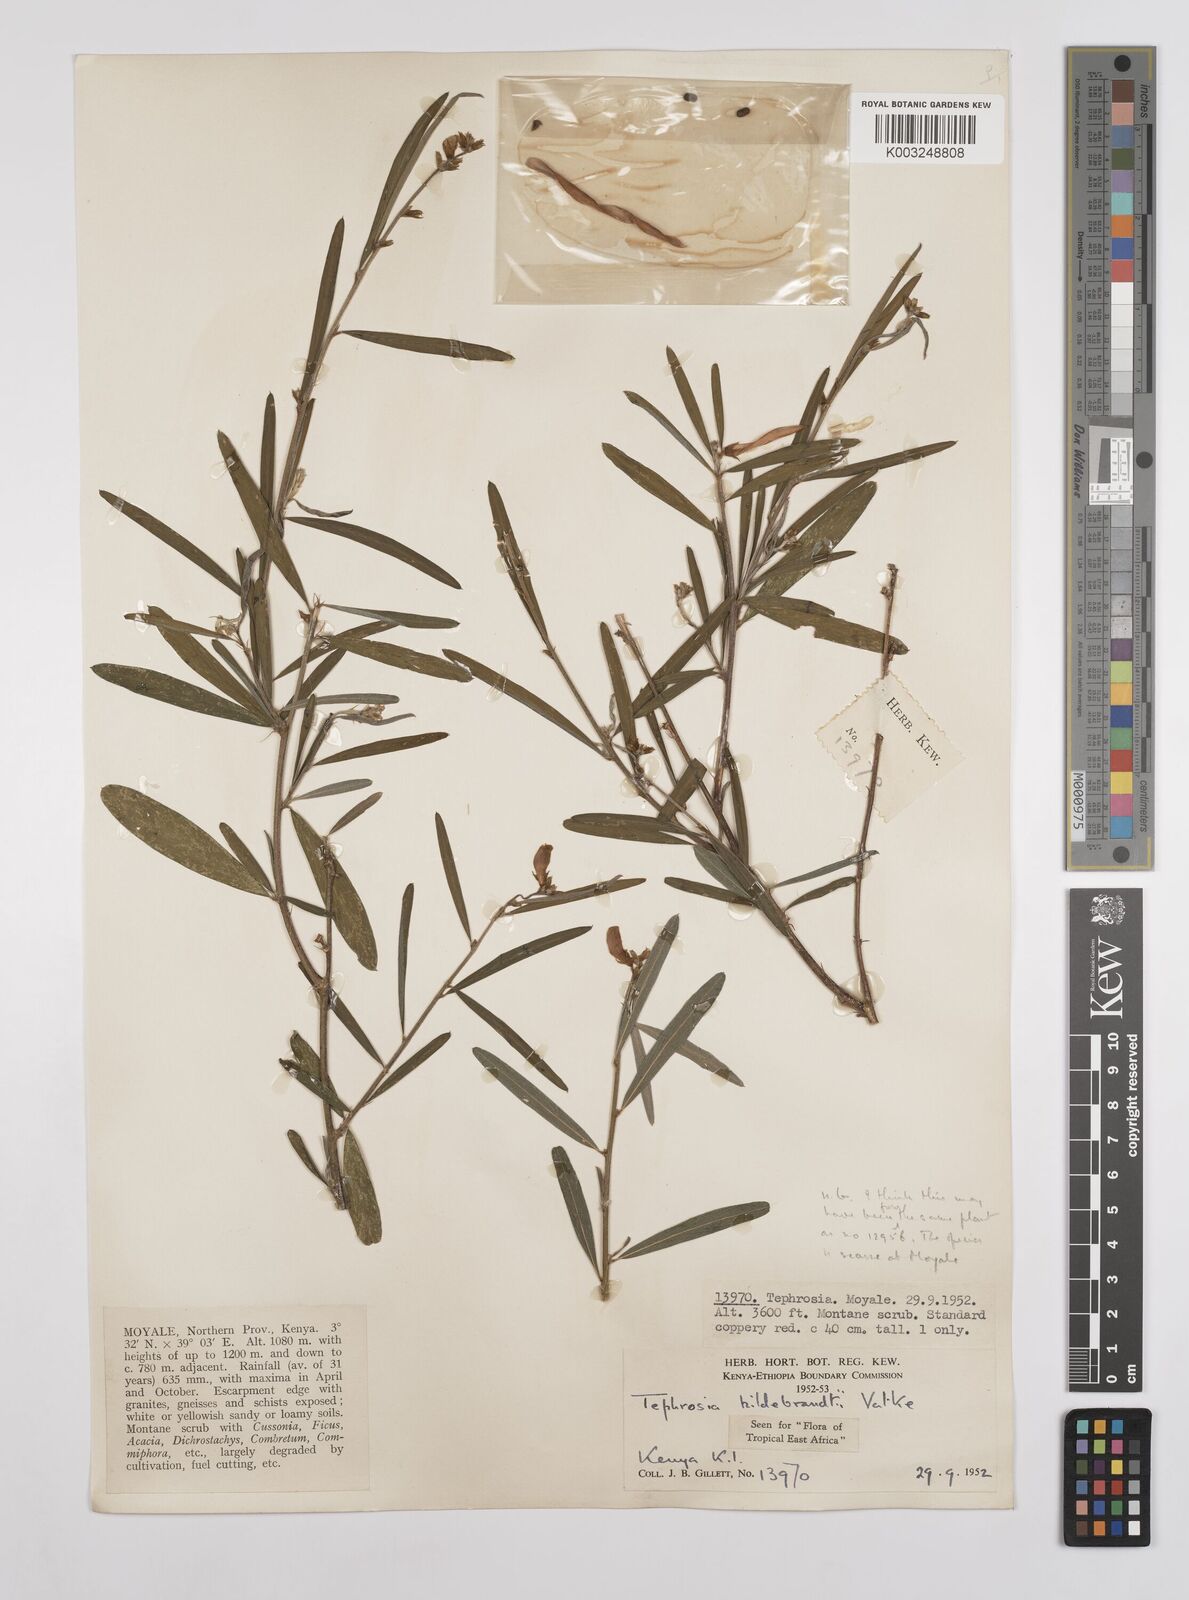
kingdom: Plantae
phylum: Tracheophyta
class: Magnoliopsida
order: Fabales
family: Fabaceae
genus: Tephrosia
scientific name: Tephrosia hildebrandtii
